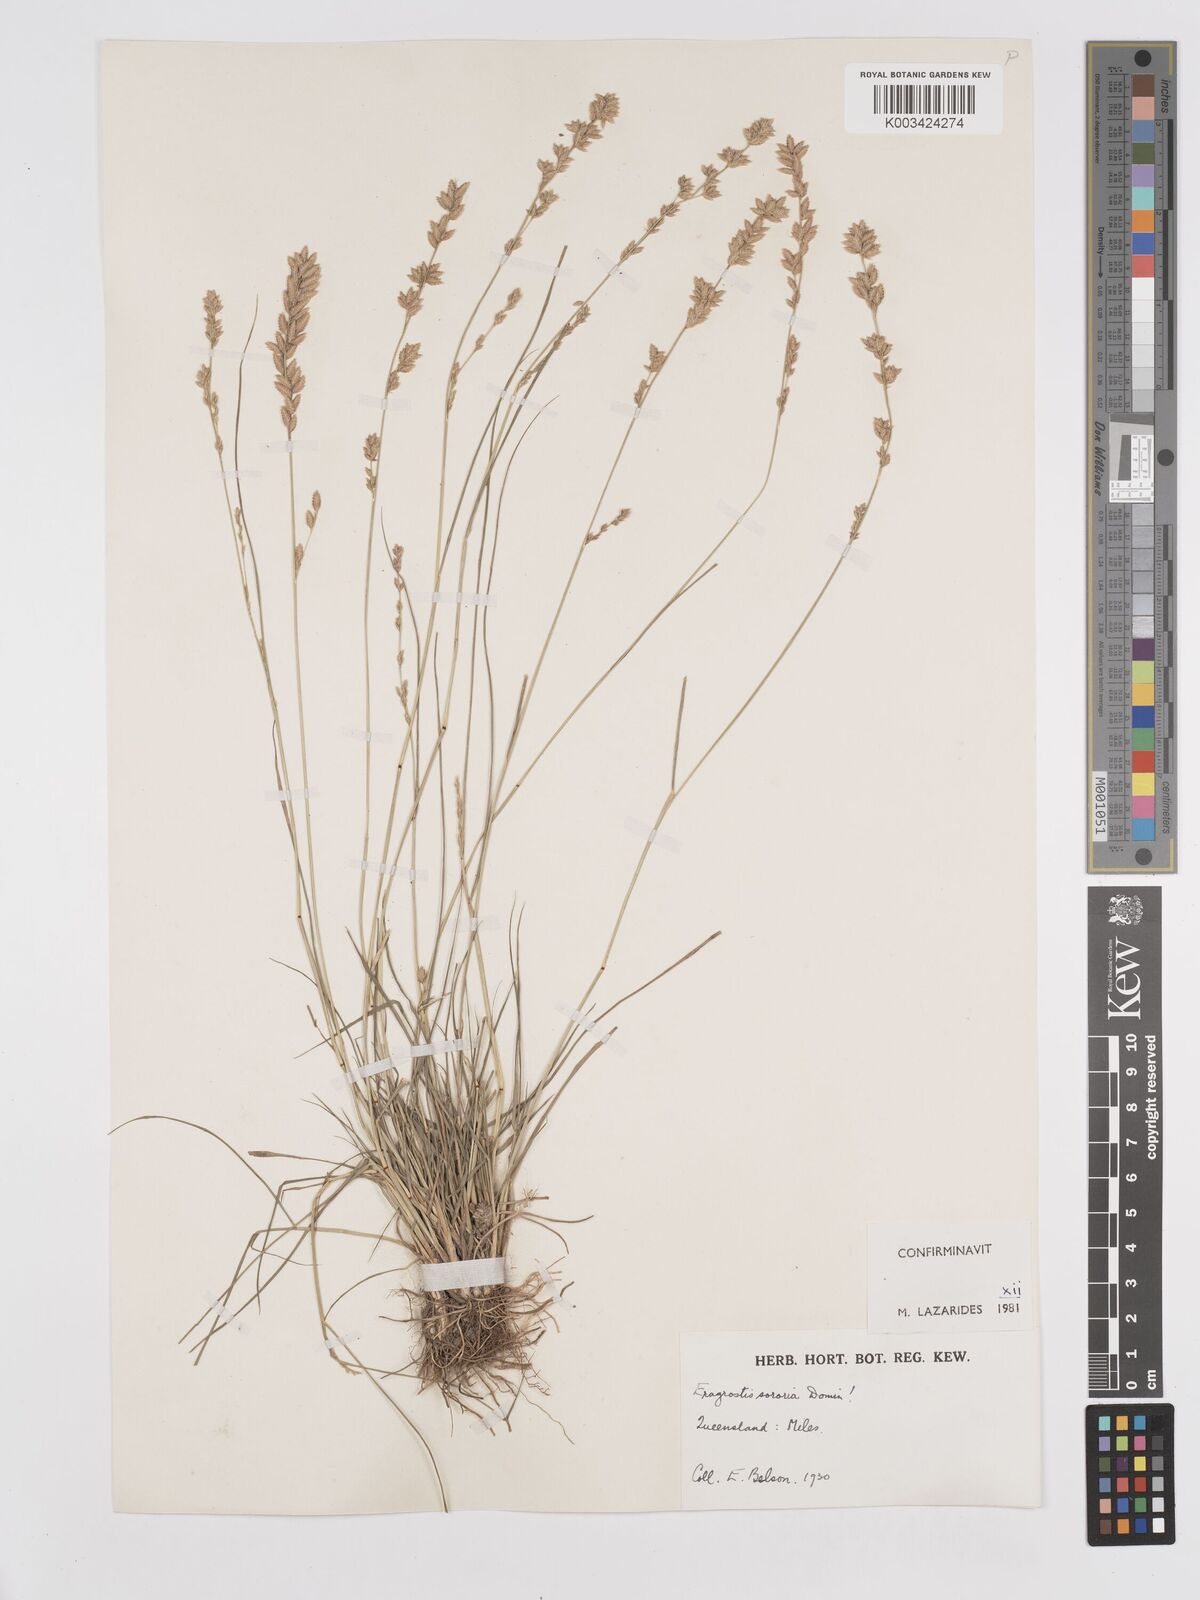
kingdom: Plantae
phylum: Tracheophyta
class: Liliopsida
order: Poales
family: Poaceae
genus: Eragrostis
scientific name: Eragrostis sororia
